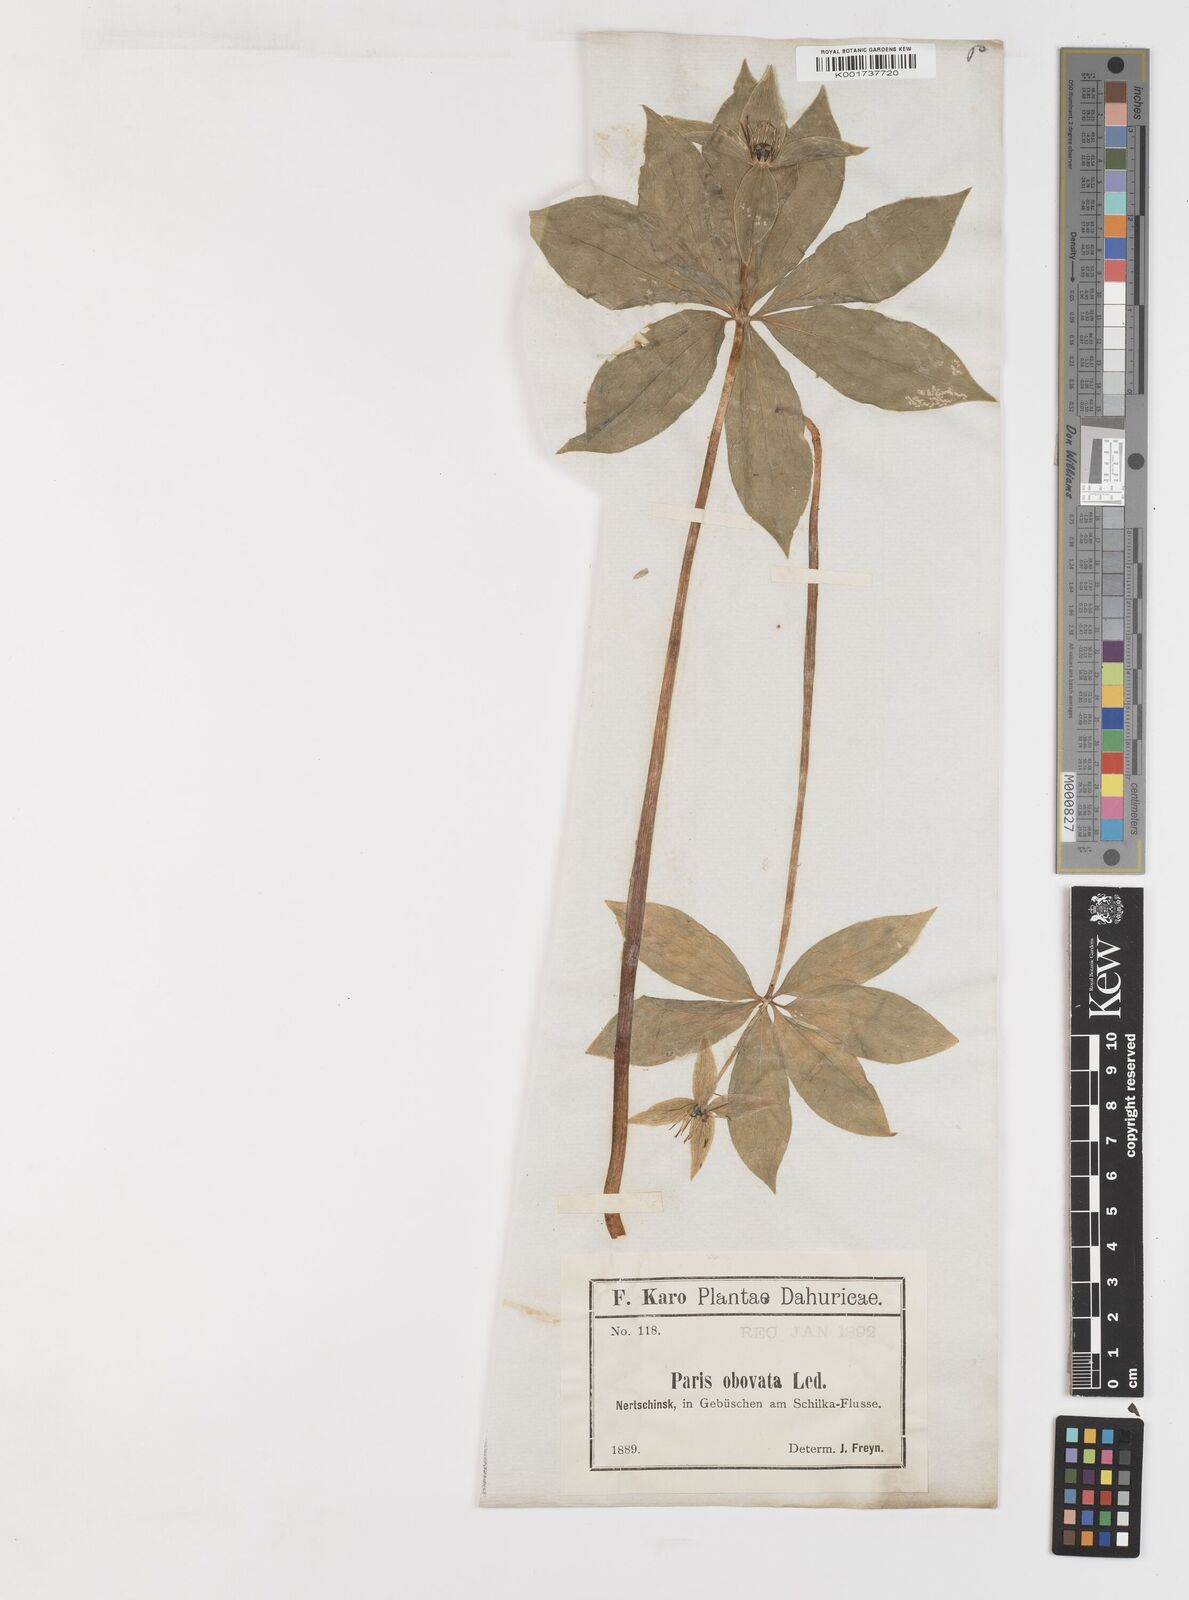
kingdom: Plantae
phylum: Tracheophyta
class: Liliopsida
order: Liliales
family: Melanthiaceae
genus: Paris
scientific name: Paris verticillata
